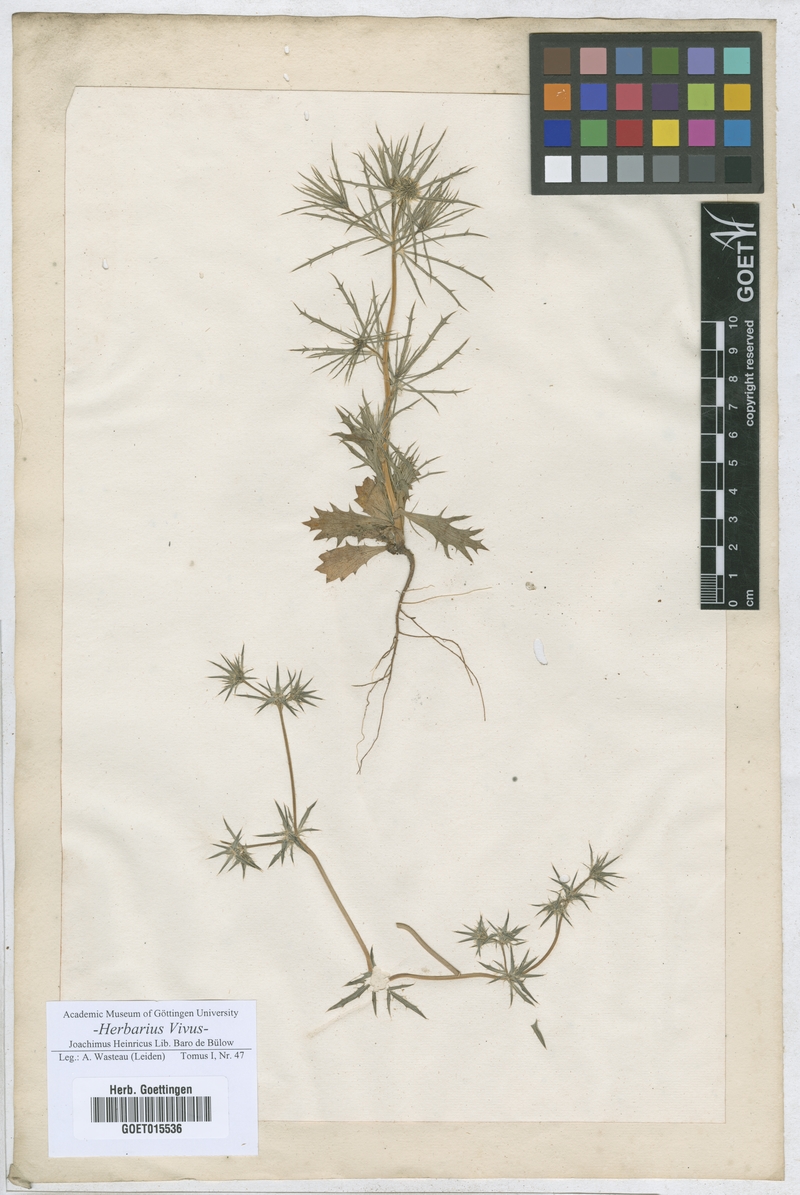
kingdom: Plantae
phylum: Tracheophyta
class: Magnoliopsida
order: Apiales
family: Apiaceae
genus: Eryngium
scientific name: Eryngium
